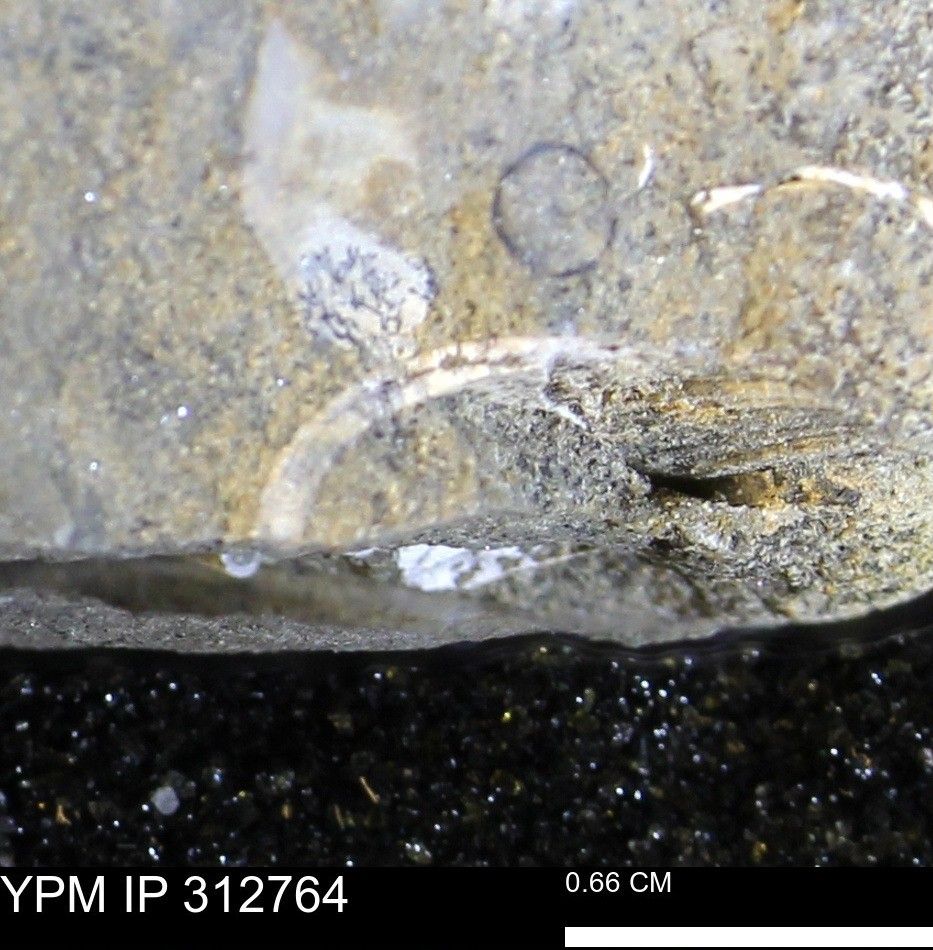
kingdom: Animalia
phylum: Mollusca
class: Bivalvia
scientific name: Bivalvia
